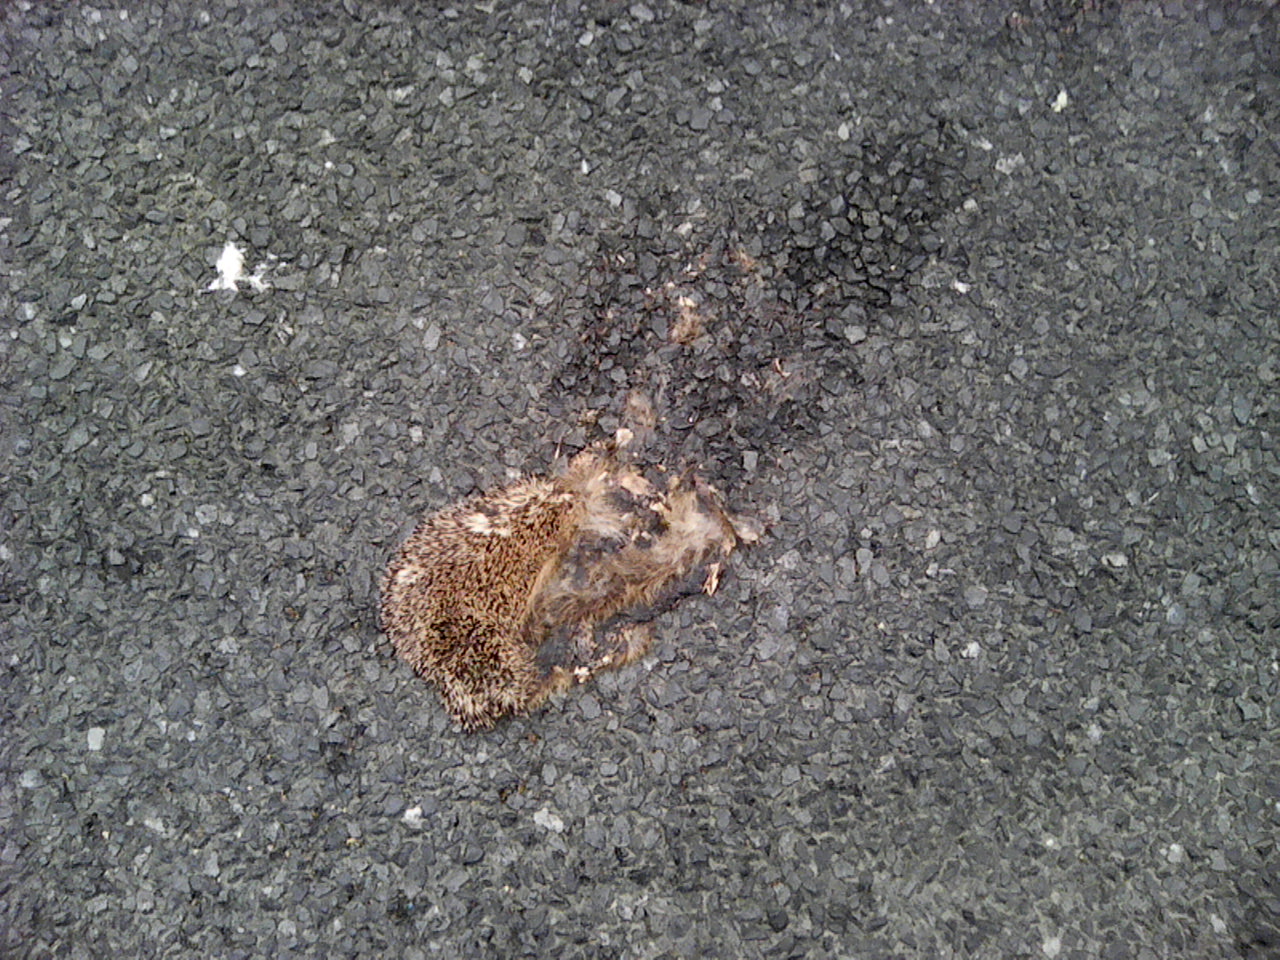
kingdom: Animalia
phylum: Chordata
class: Mammalia
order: Erinaceomorpha
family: Erinaceidae
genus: Erinaceus
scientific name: Erinaceus
